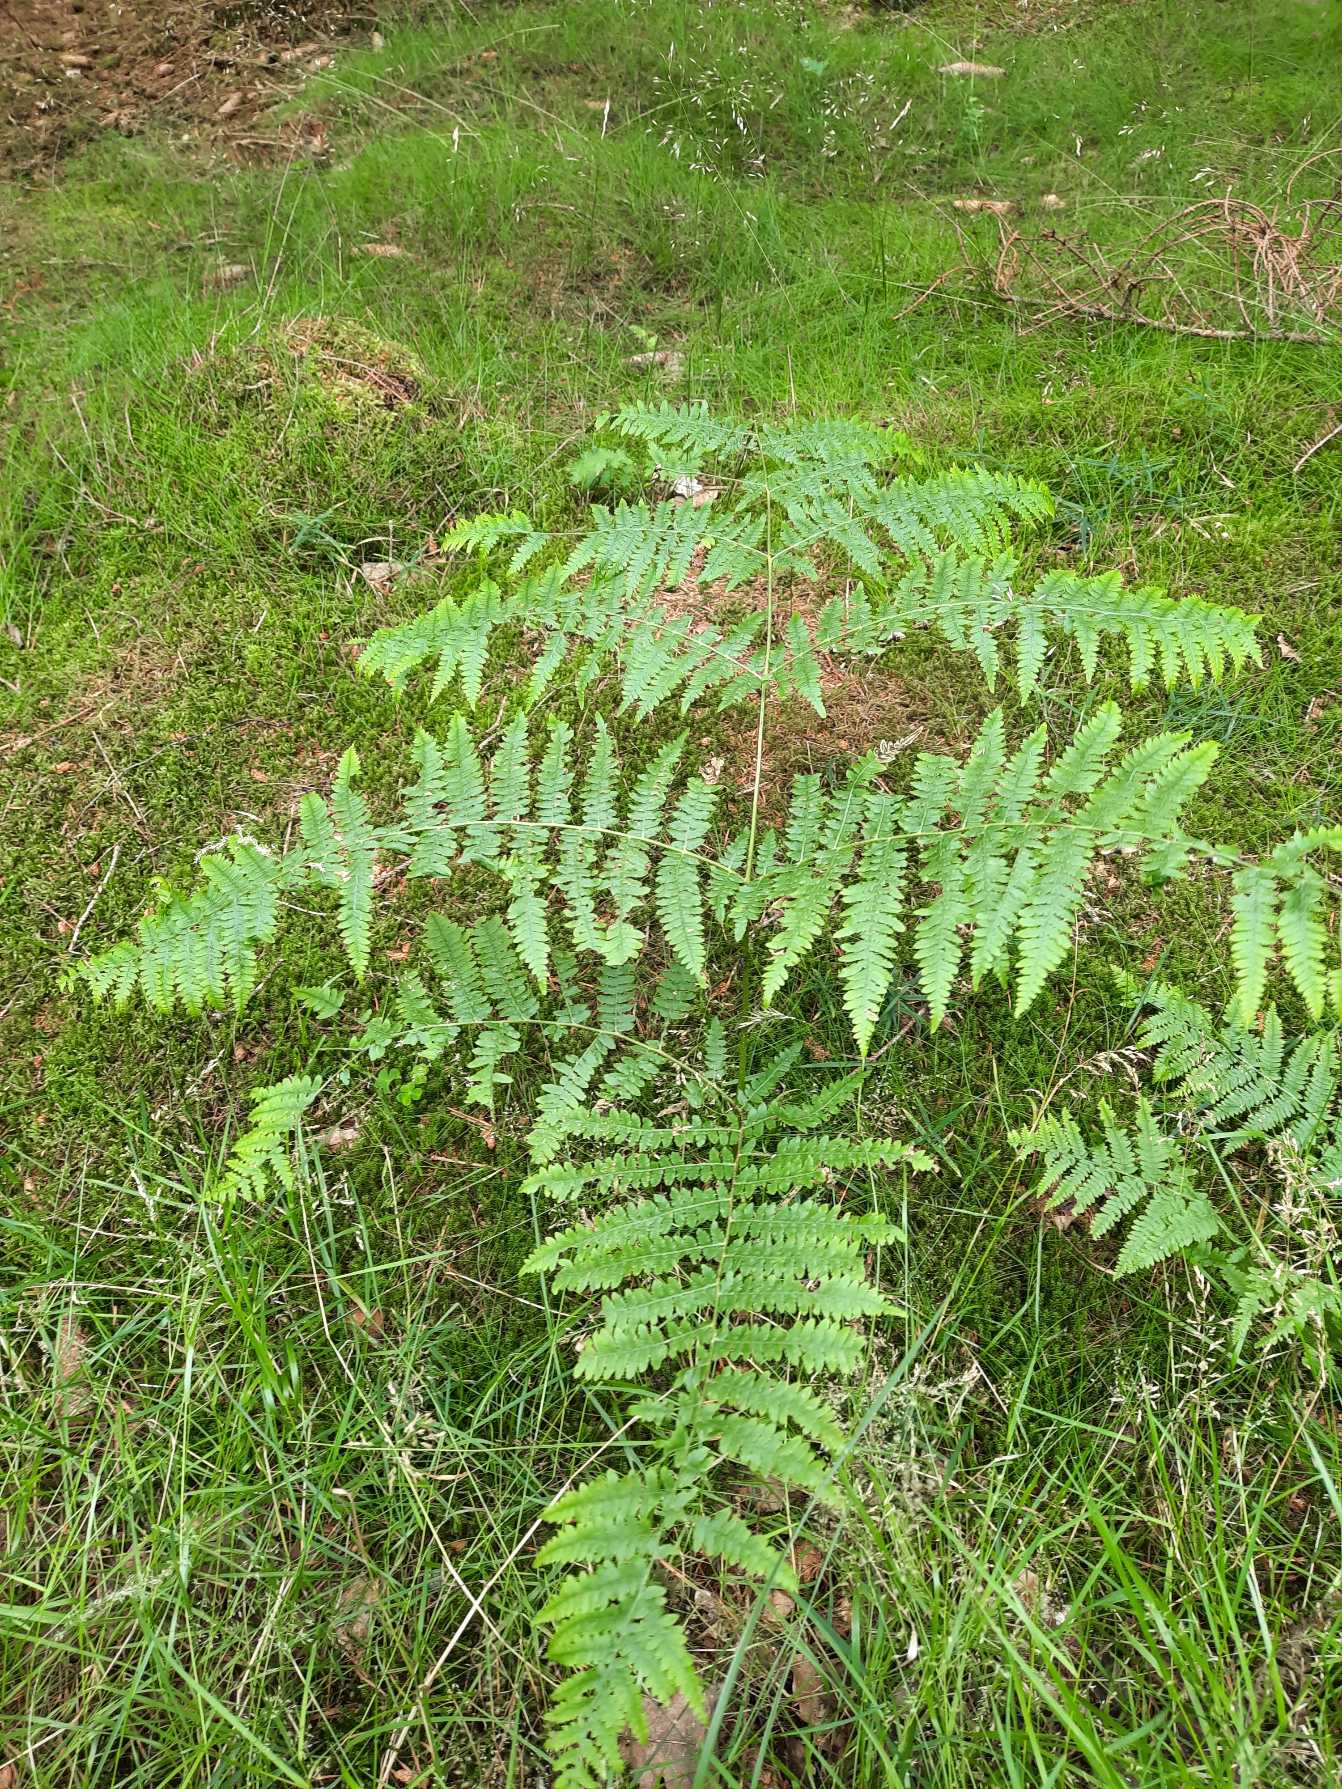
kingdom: Plantae
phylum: Tracheophyta
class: Polypodiopsida
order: Polypodiales
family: Dennstaedtiaceae
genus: Pteridium
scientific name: Pteridium aquilinum
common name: Ørnebregne
